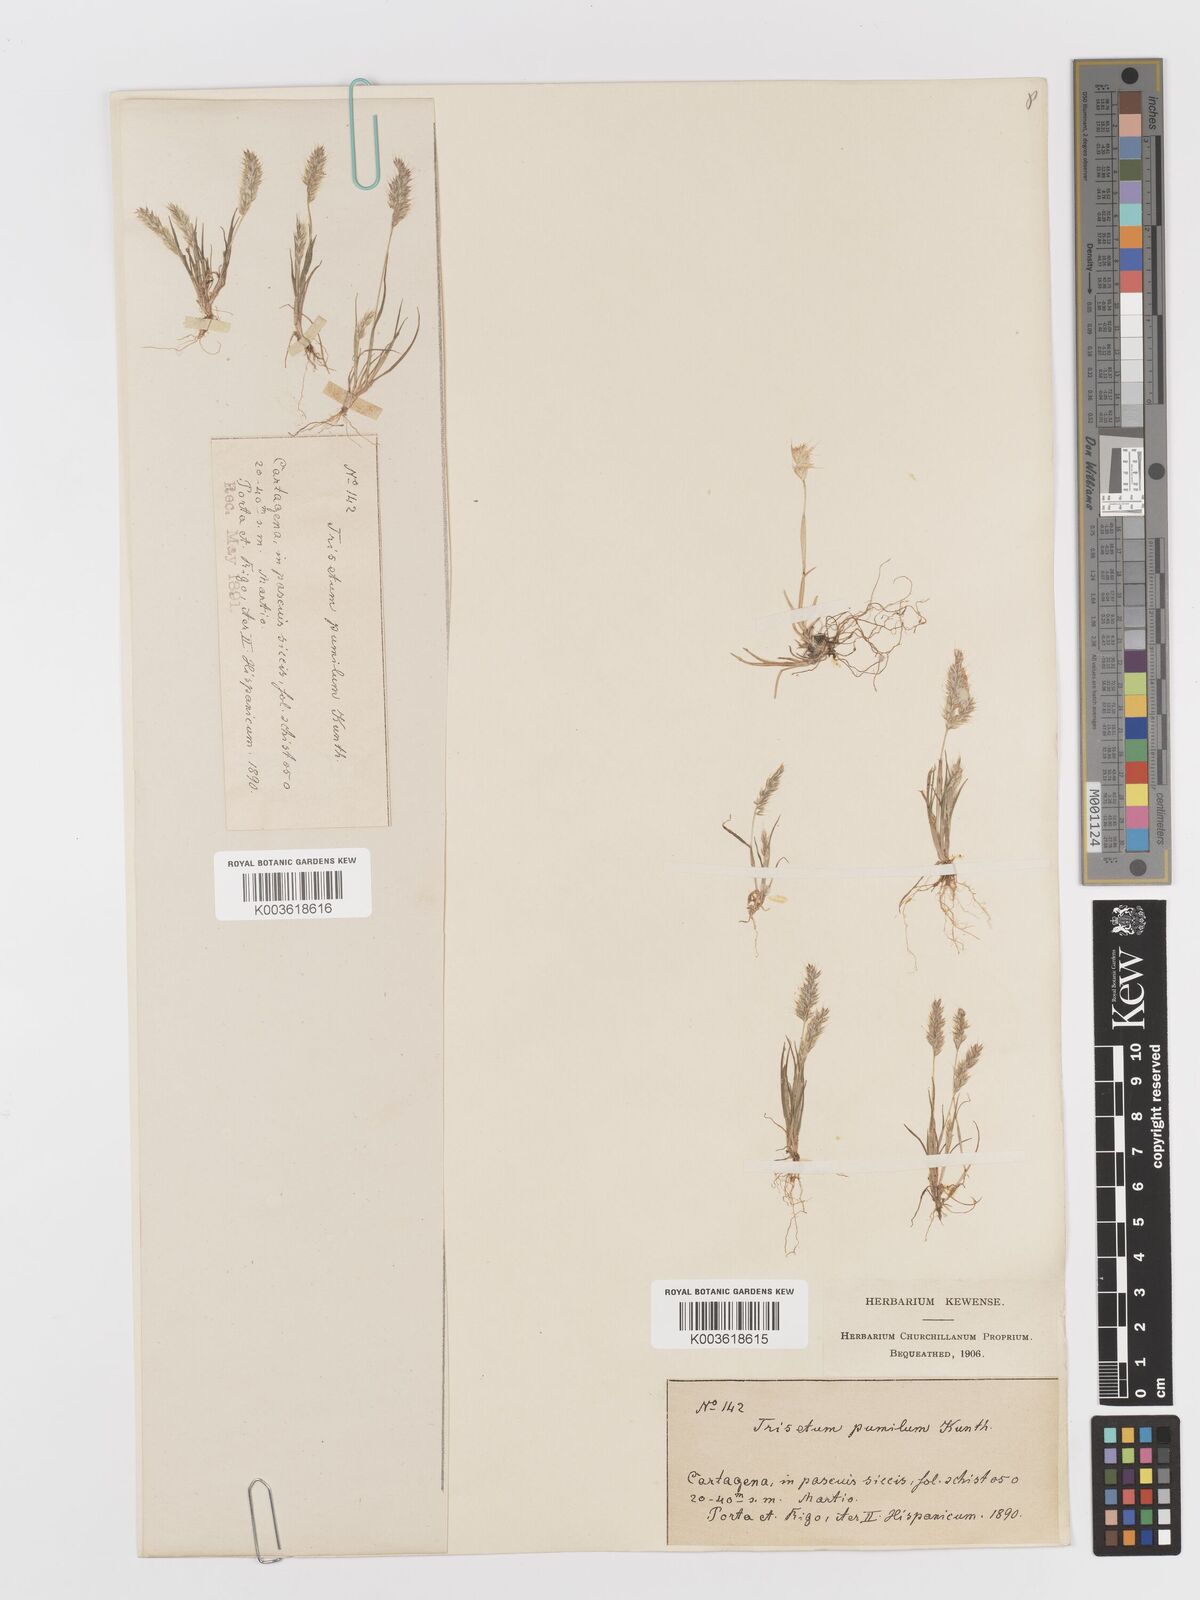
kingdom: Plantae
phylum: Tracheophyta
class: Liliopsida
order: Poales
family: Poaceae
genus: Rostraria
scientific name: Rostraria pumila
